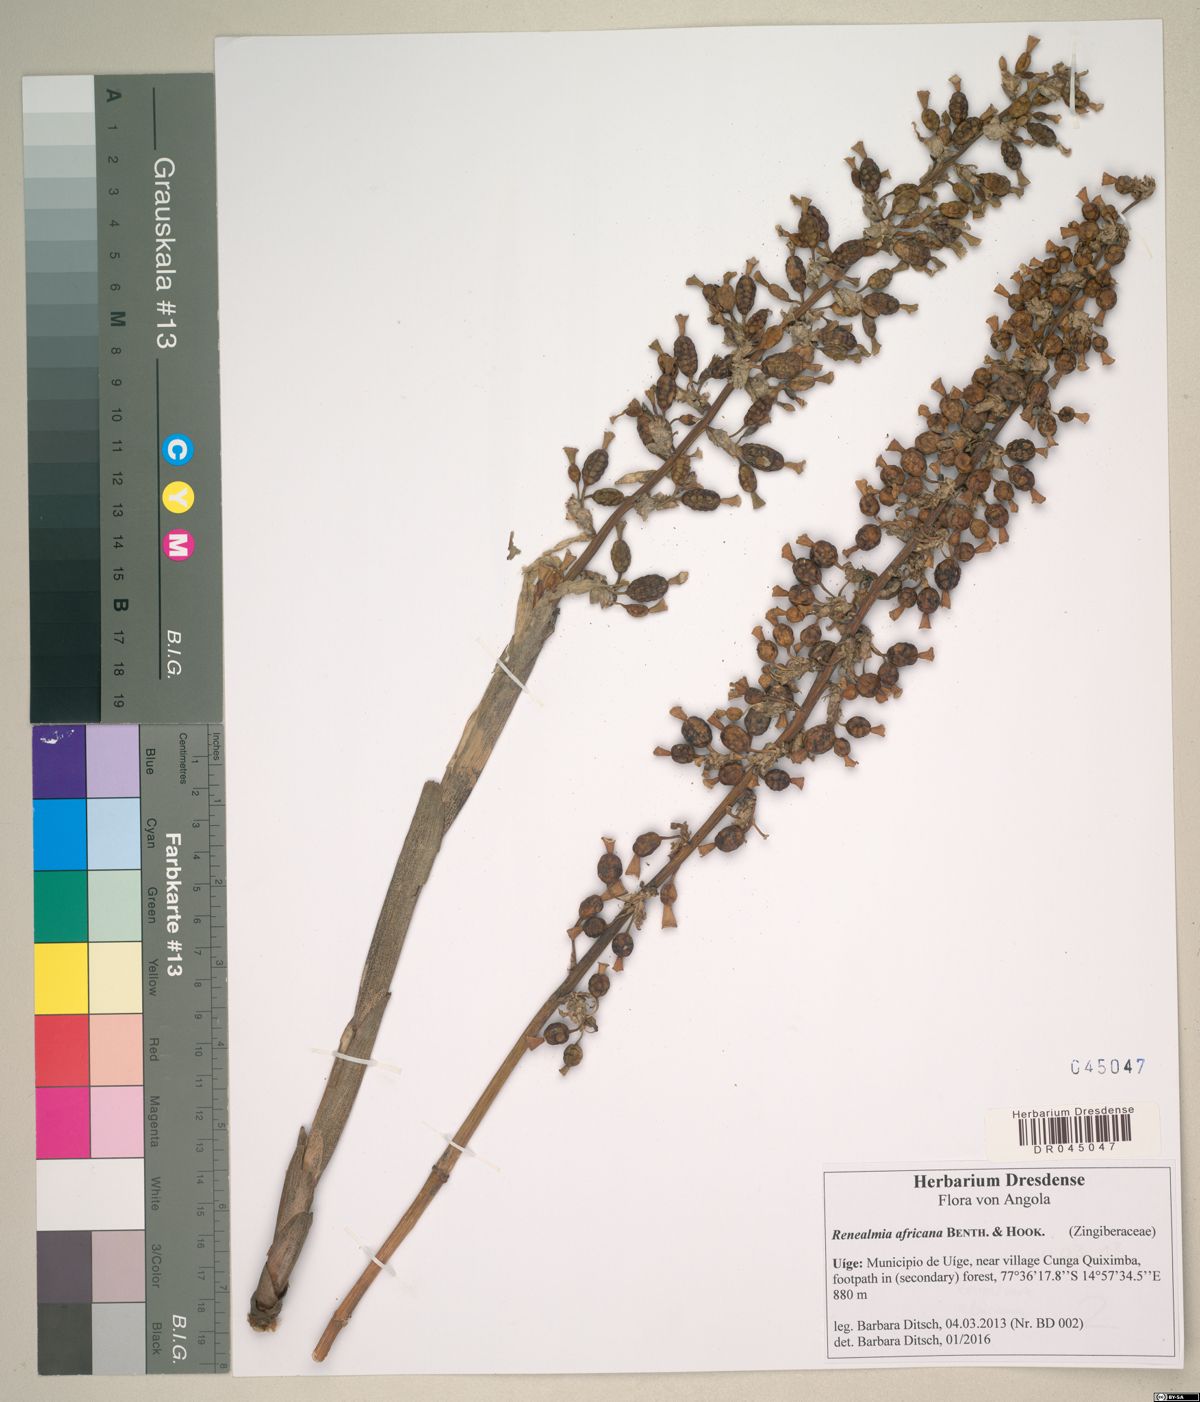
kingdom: Plantae
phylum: Tracheophyta
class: Liliopsida
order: Zingiberales
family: Zingiberaceae
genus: Renealmia
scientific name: Renealmia africana
